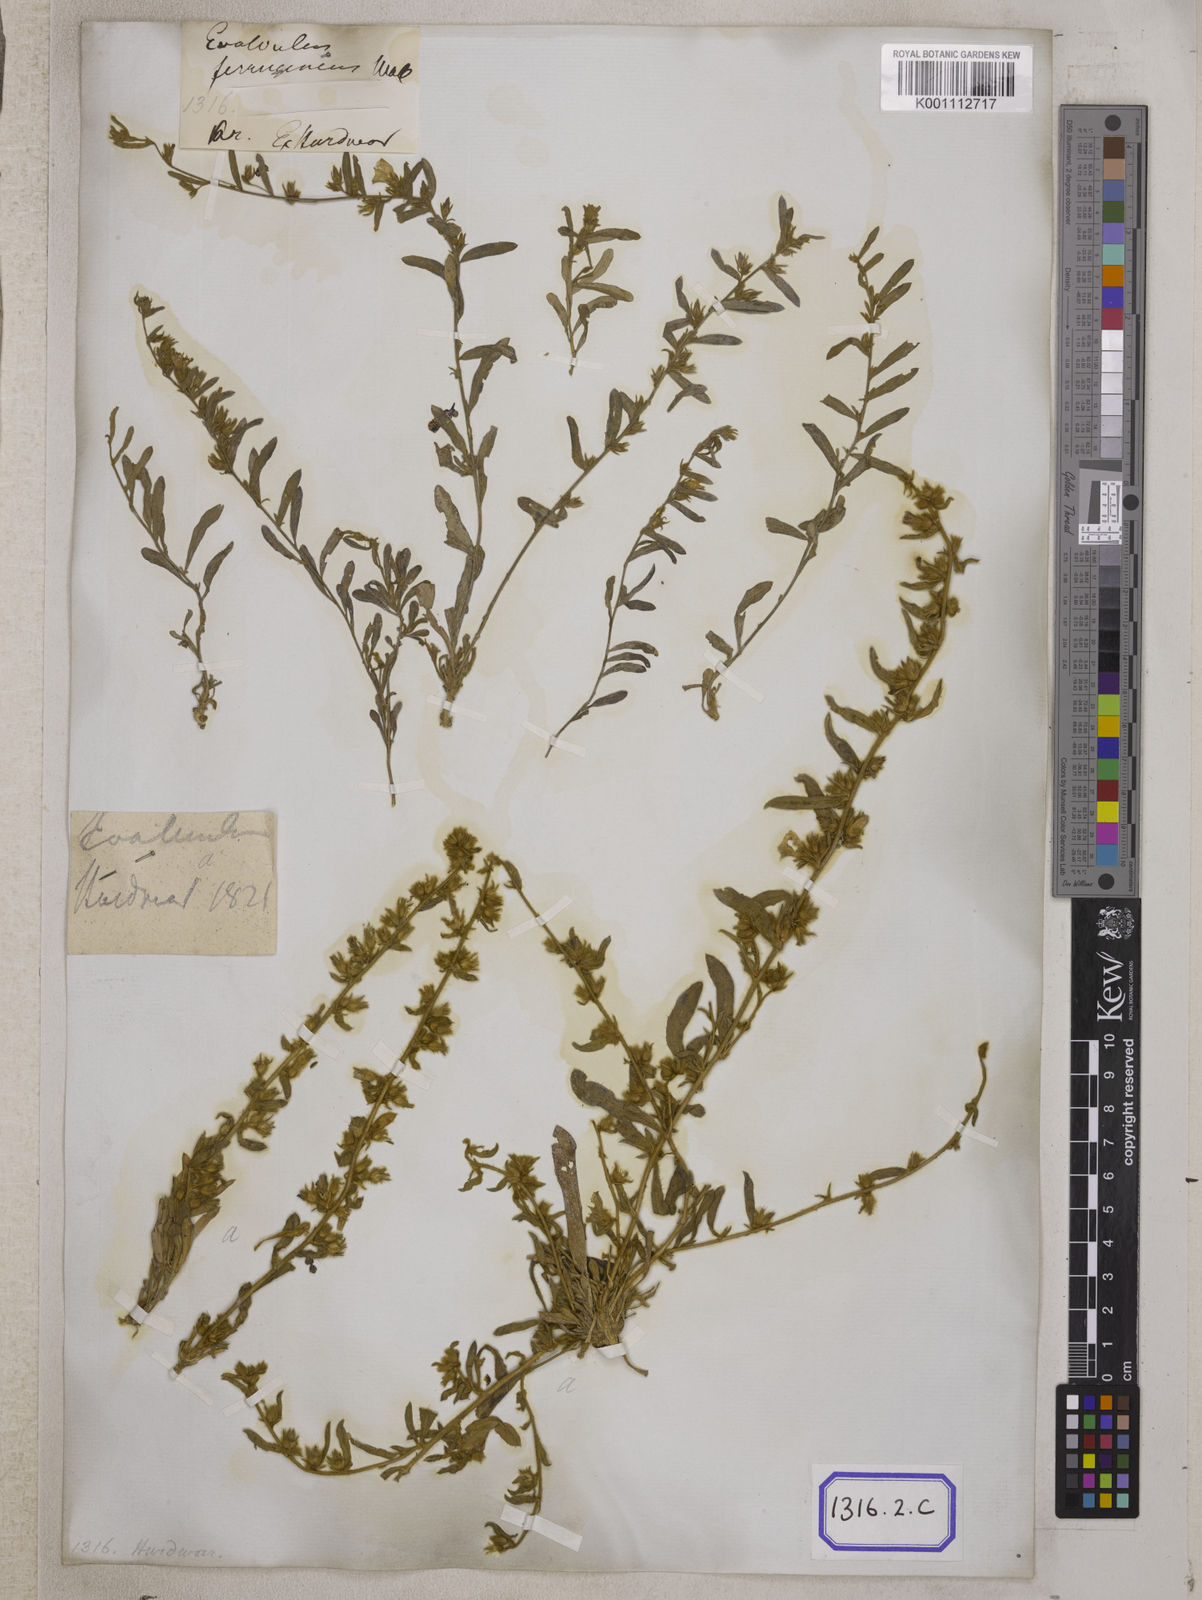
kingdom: Plantae
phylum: Tracheophyta
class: Magnoliopsida
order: Solanales
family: Convolvulaceae
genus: Evolvulus
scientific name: Evolvulus
